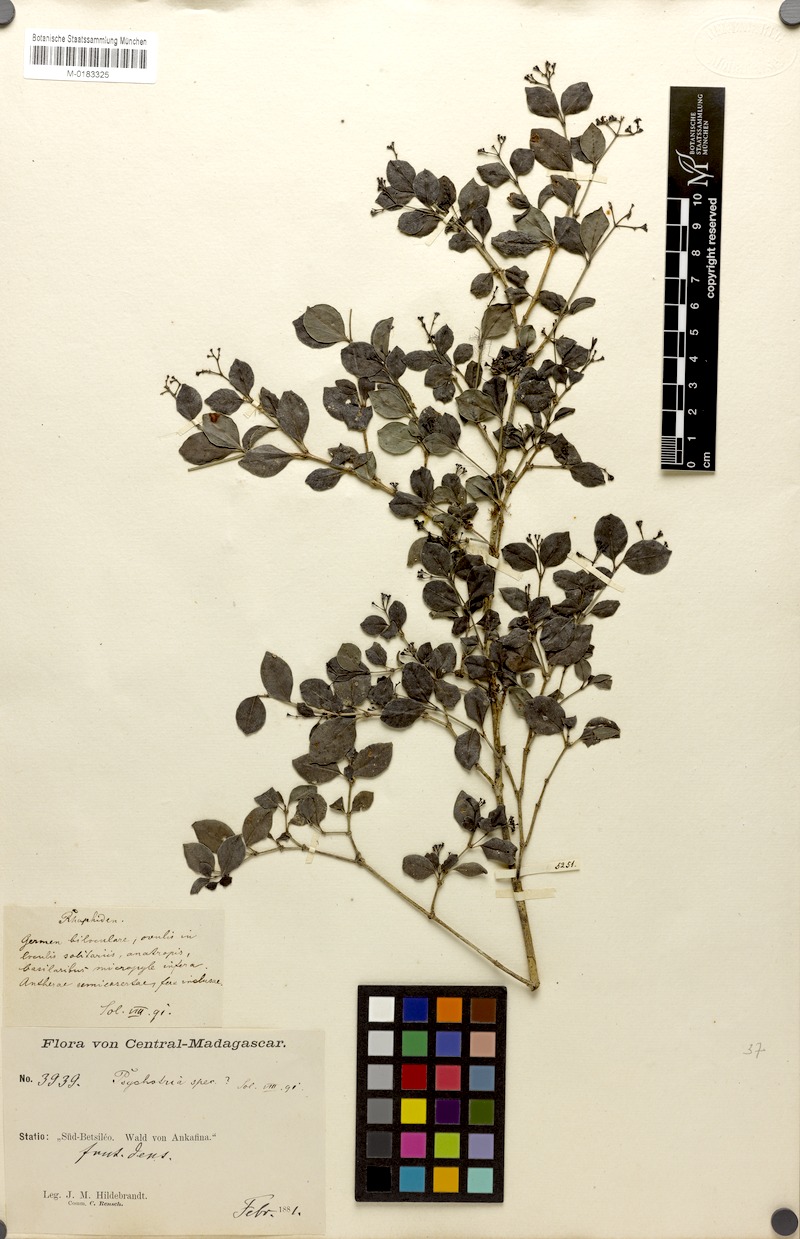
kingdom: Plantae
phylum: Tracheophyta
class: Magnoliopsida
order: Gentianales
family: Rubiaceae
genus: Psychotria
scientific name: Psychotria ankafinensis
